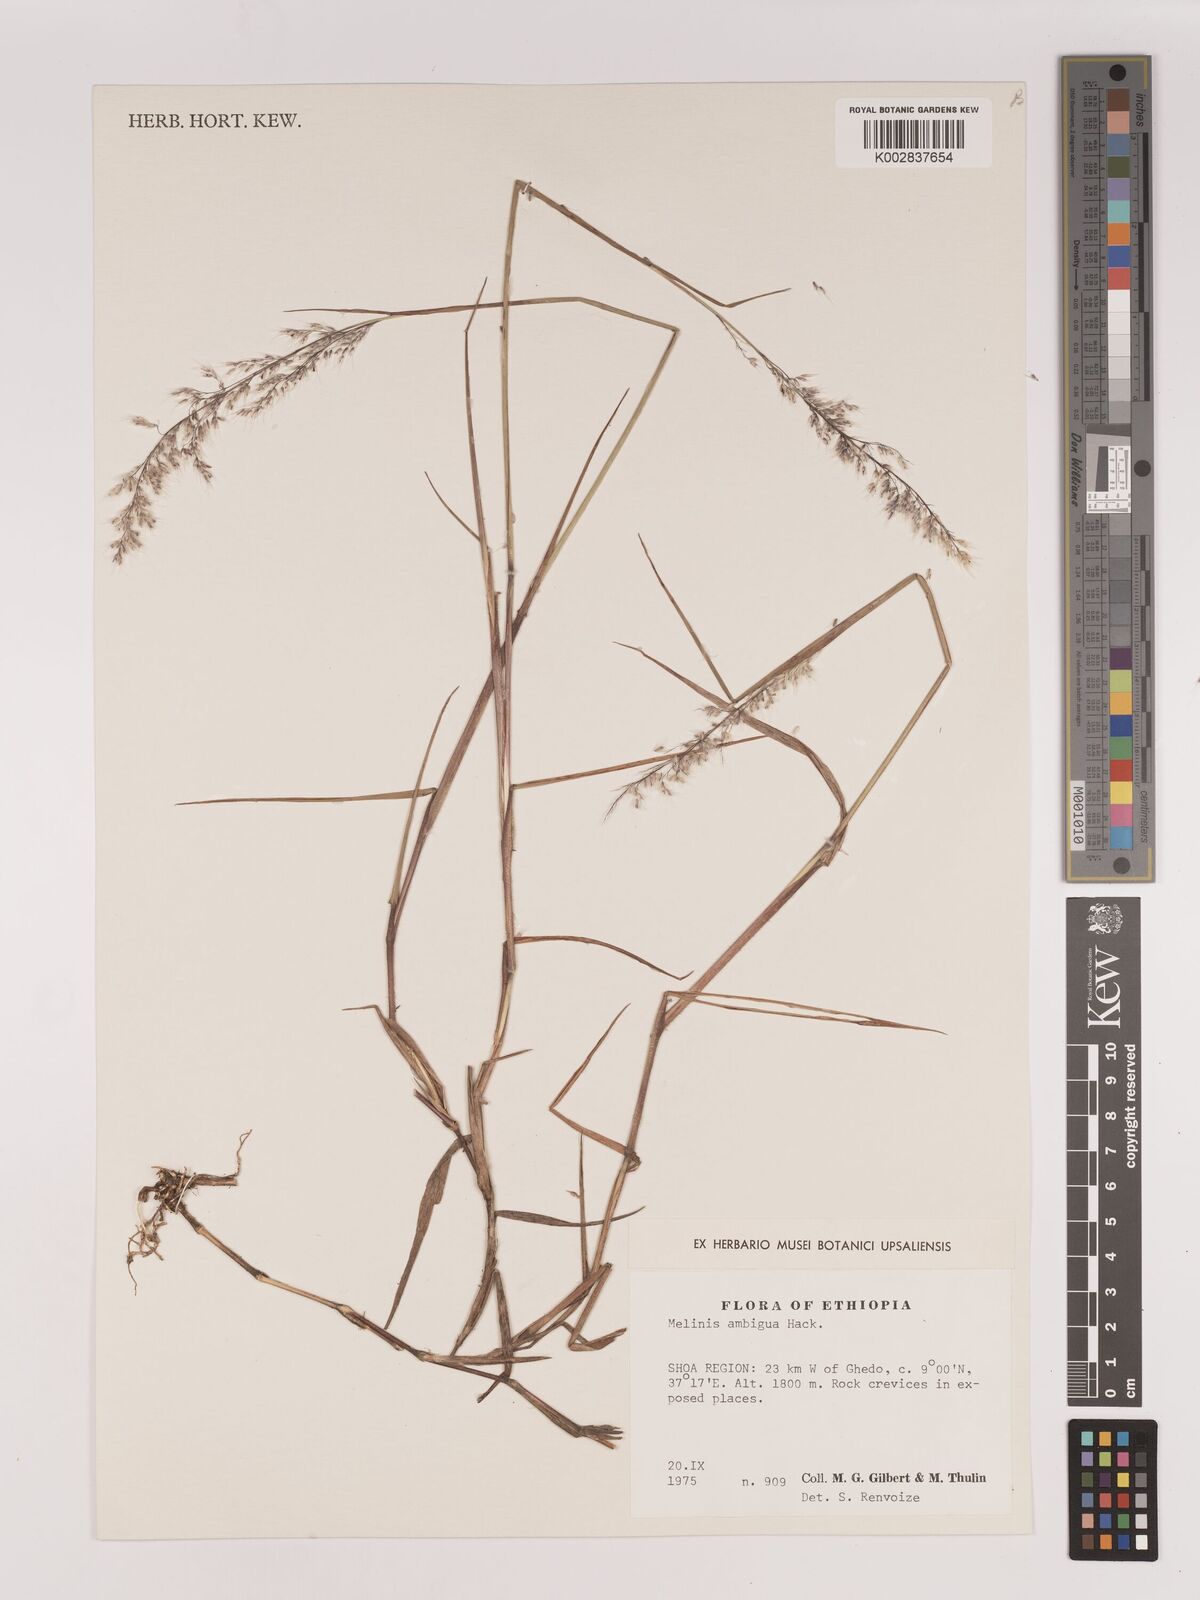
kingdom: Plantae
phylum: Tracheophyta
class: Liliopsida
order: Poales
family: Poaceae
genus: Melinis
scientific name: Melinis ambigua
